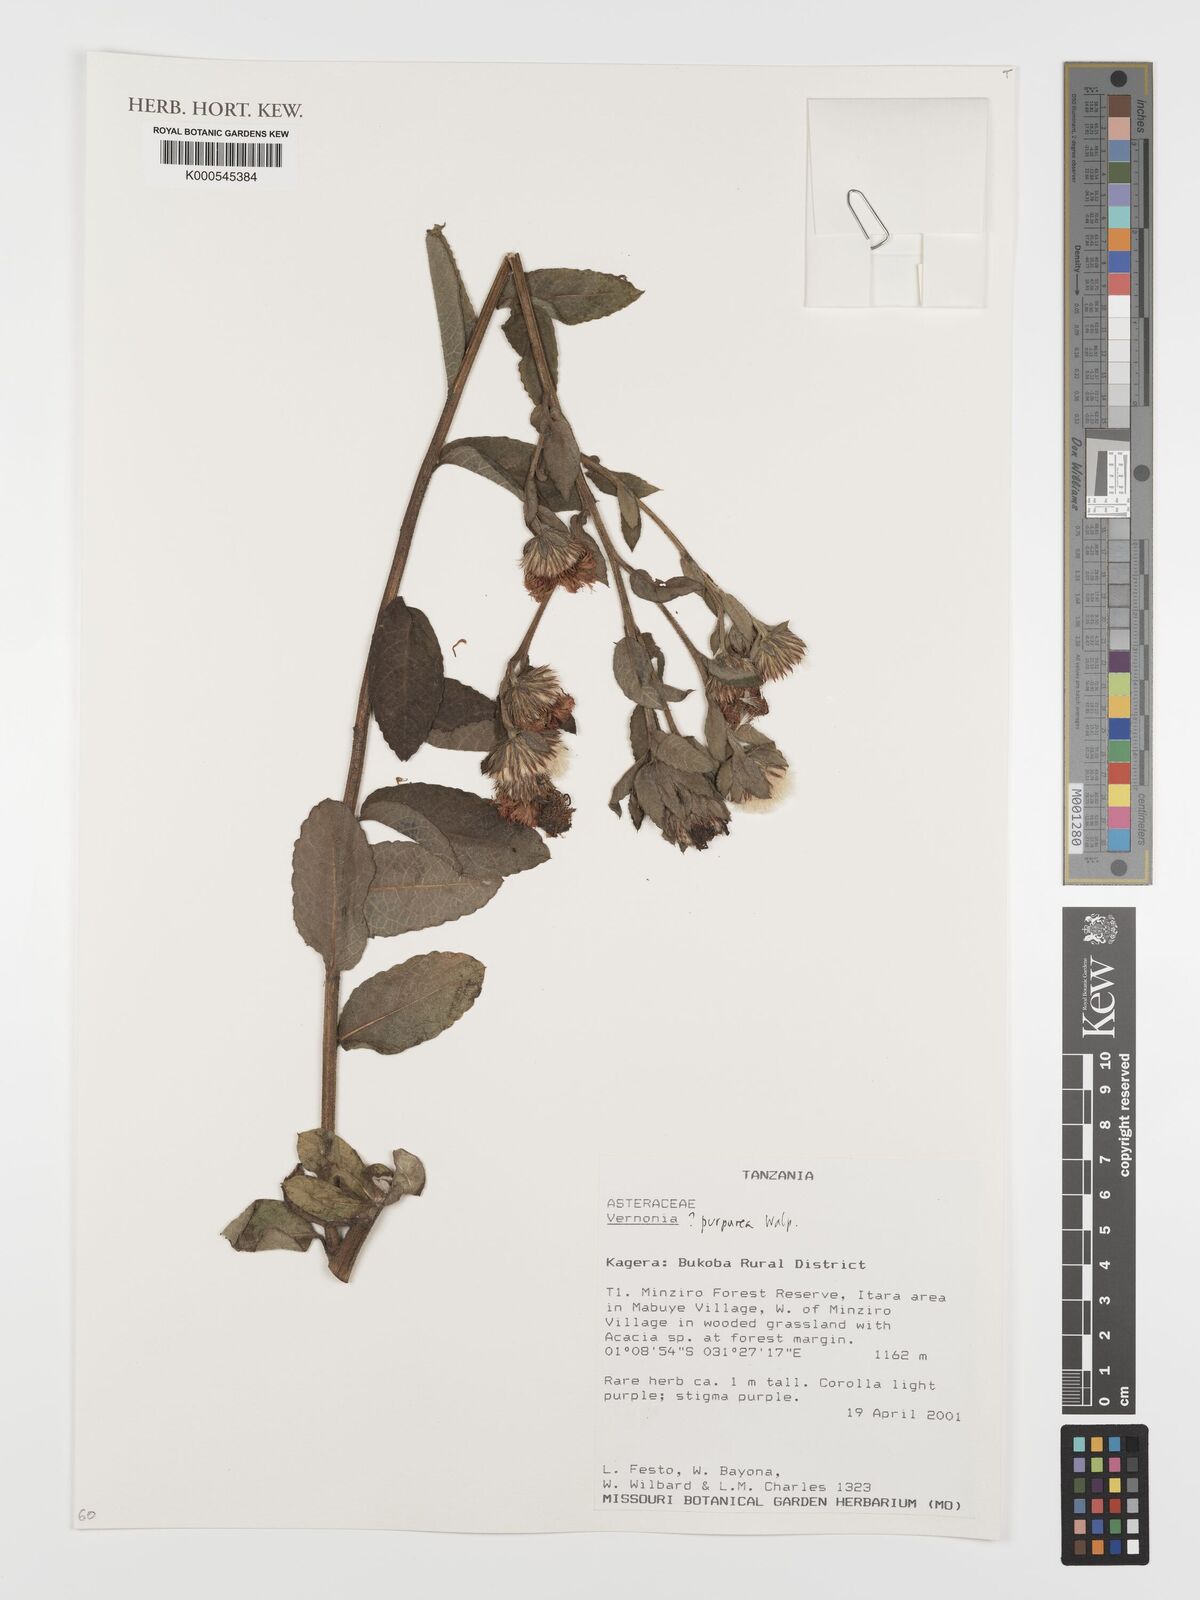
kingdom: Plantae
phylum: Tracheophyta
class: Magnoliopsida
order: Asterales
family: Asteraceae
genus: Nothovernonia
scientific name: Nothovernonia purpurea
